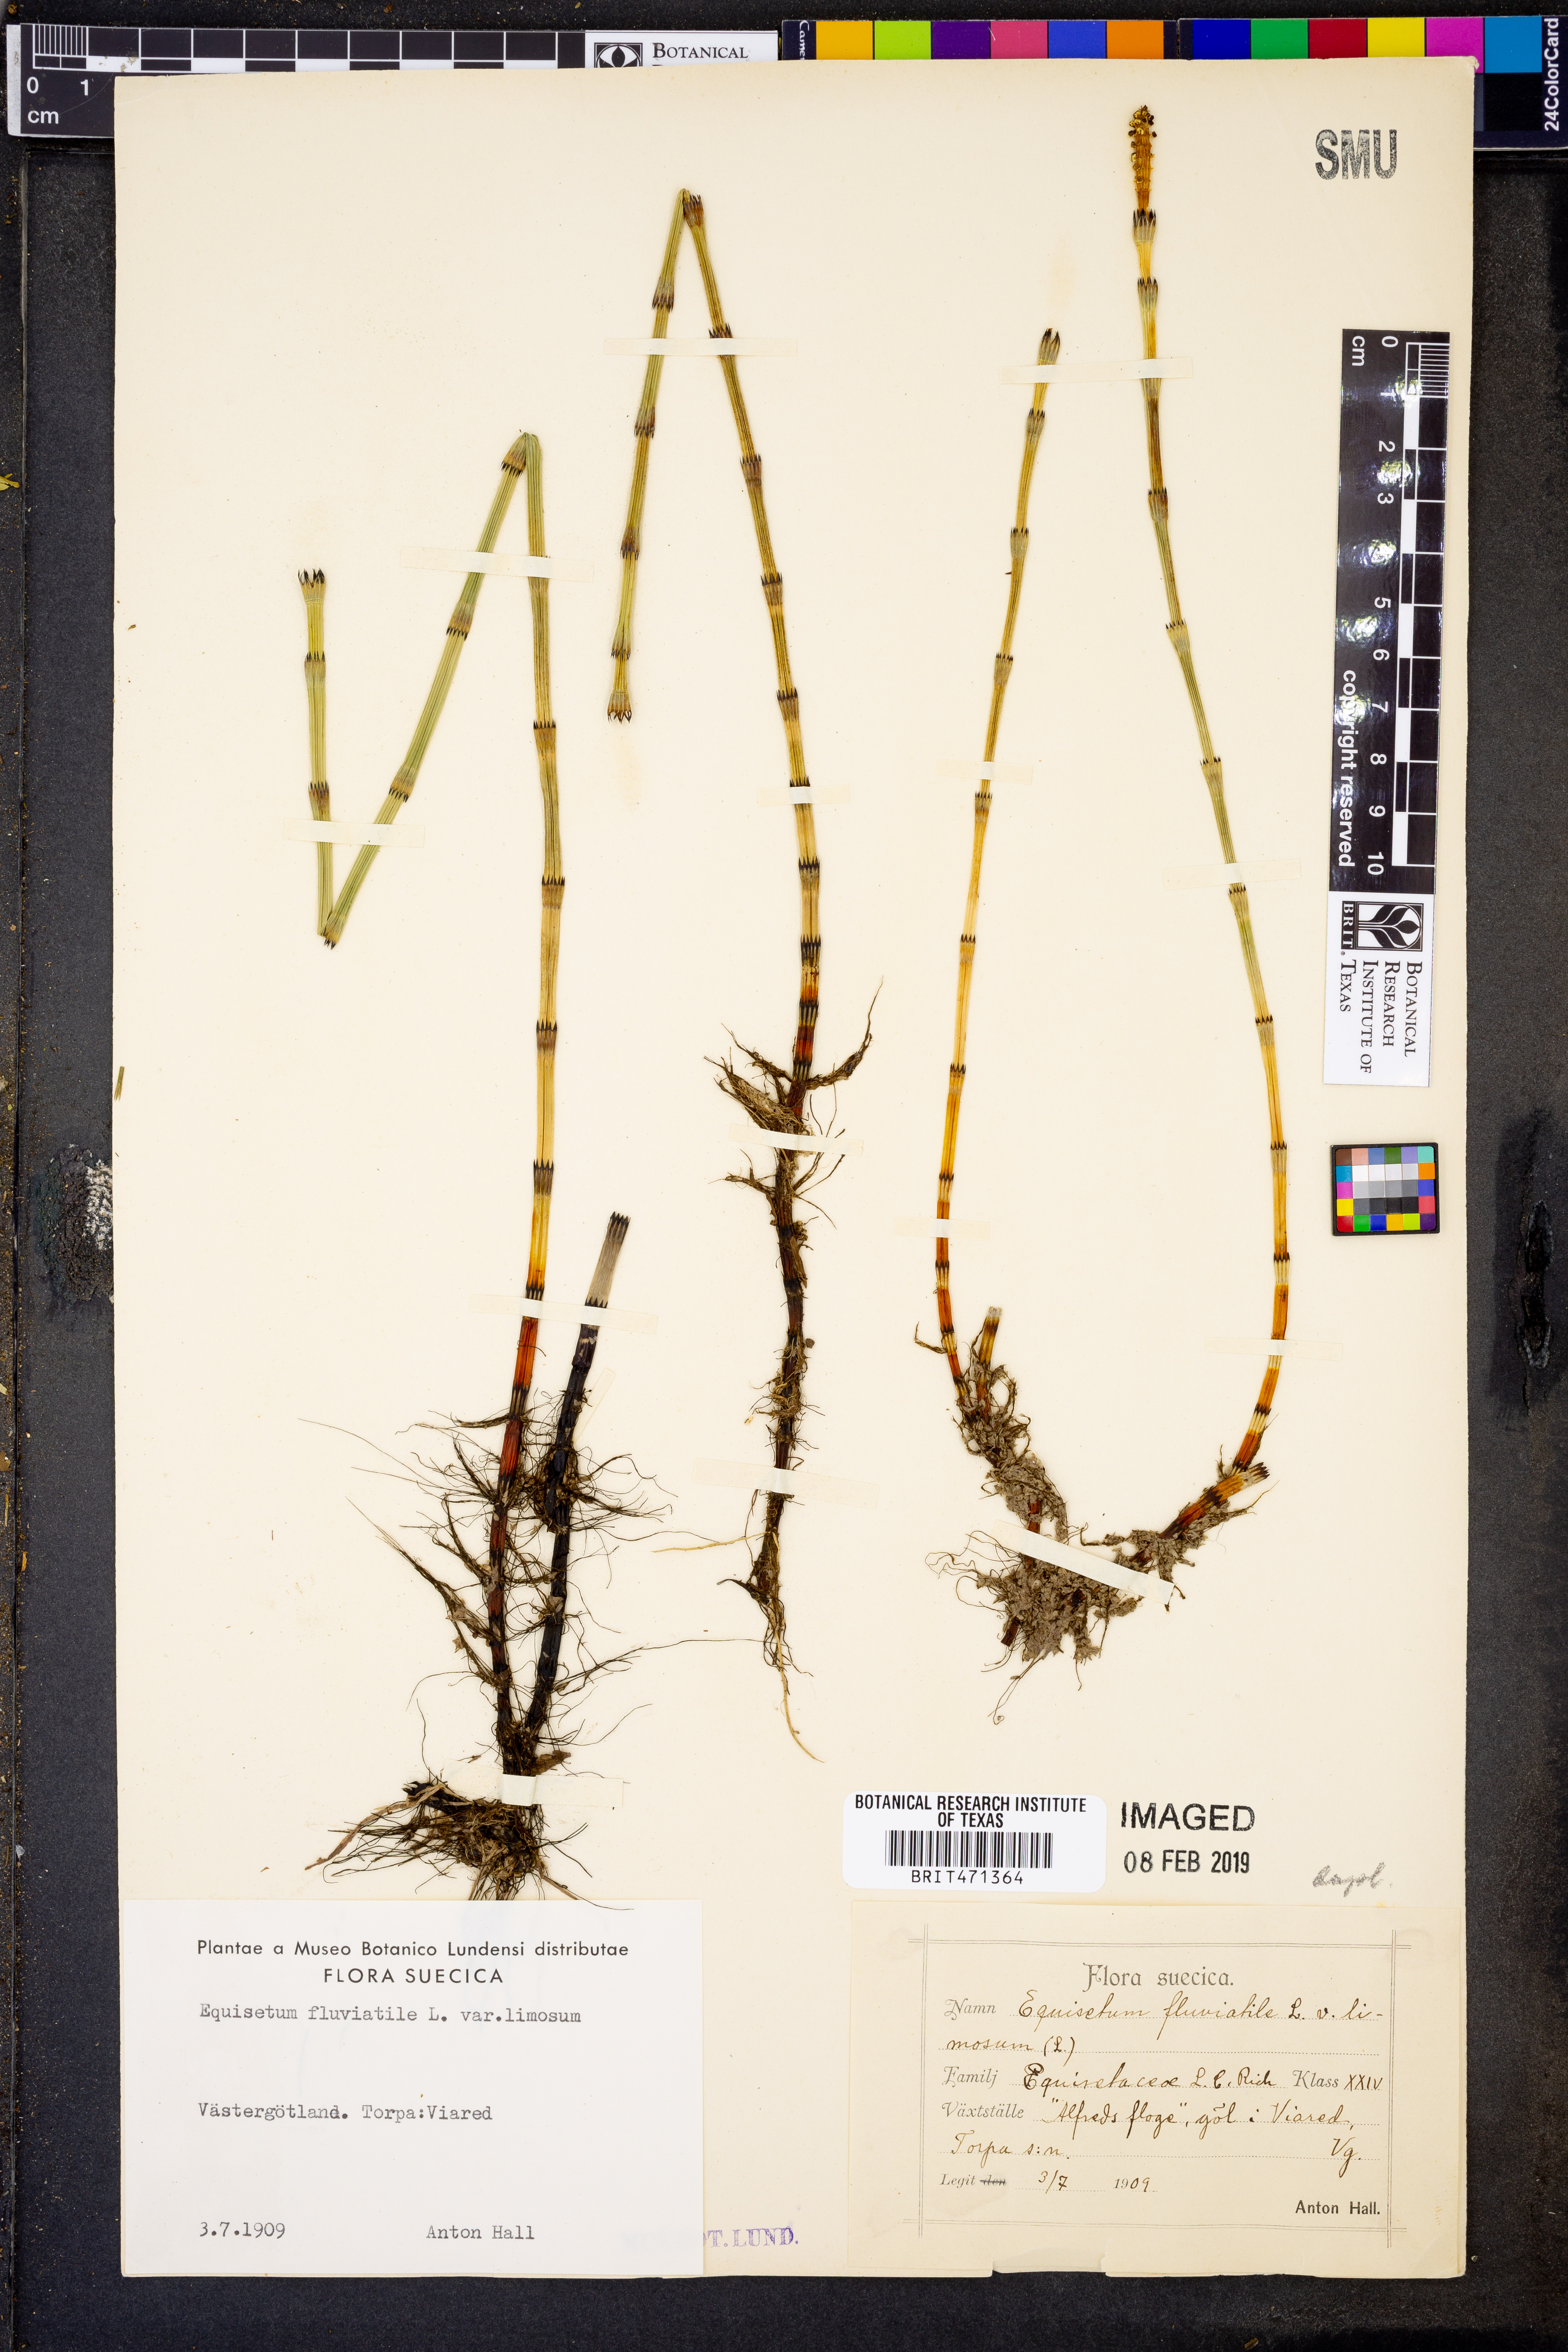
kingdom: Plantae
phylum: Tracheophyta
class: Polypodiopsida
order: Equisetales
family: Equisetaceae
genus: Equisetum
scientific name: Equisetum fluviatile
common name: Water horsetail
